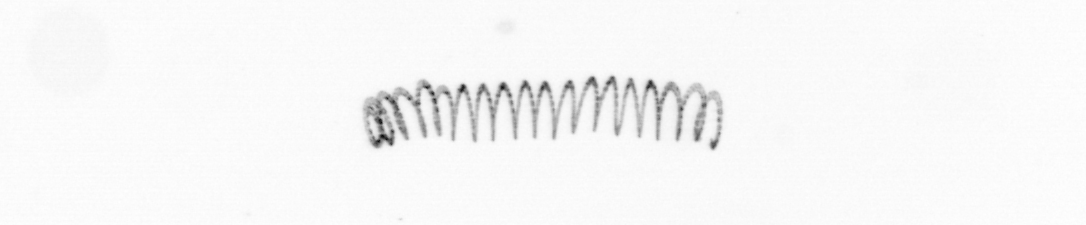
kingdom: Chromista
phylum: Ochrophyta
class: Bacillariophyceae
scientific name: Bacillariophyceae
